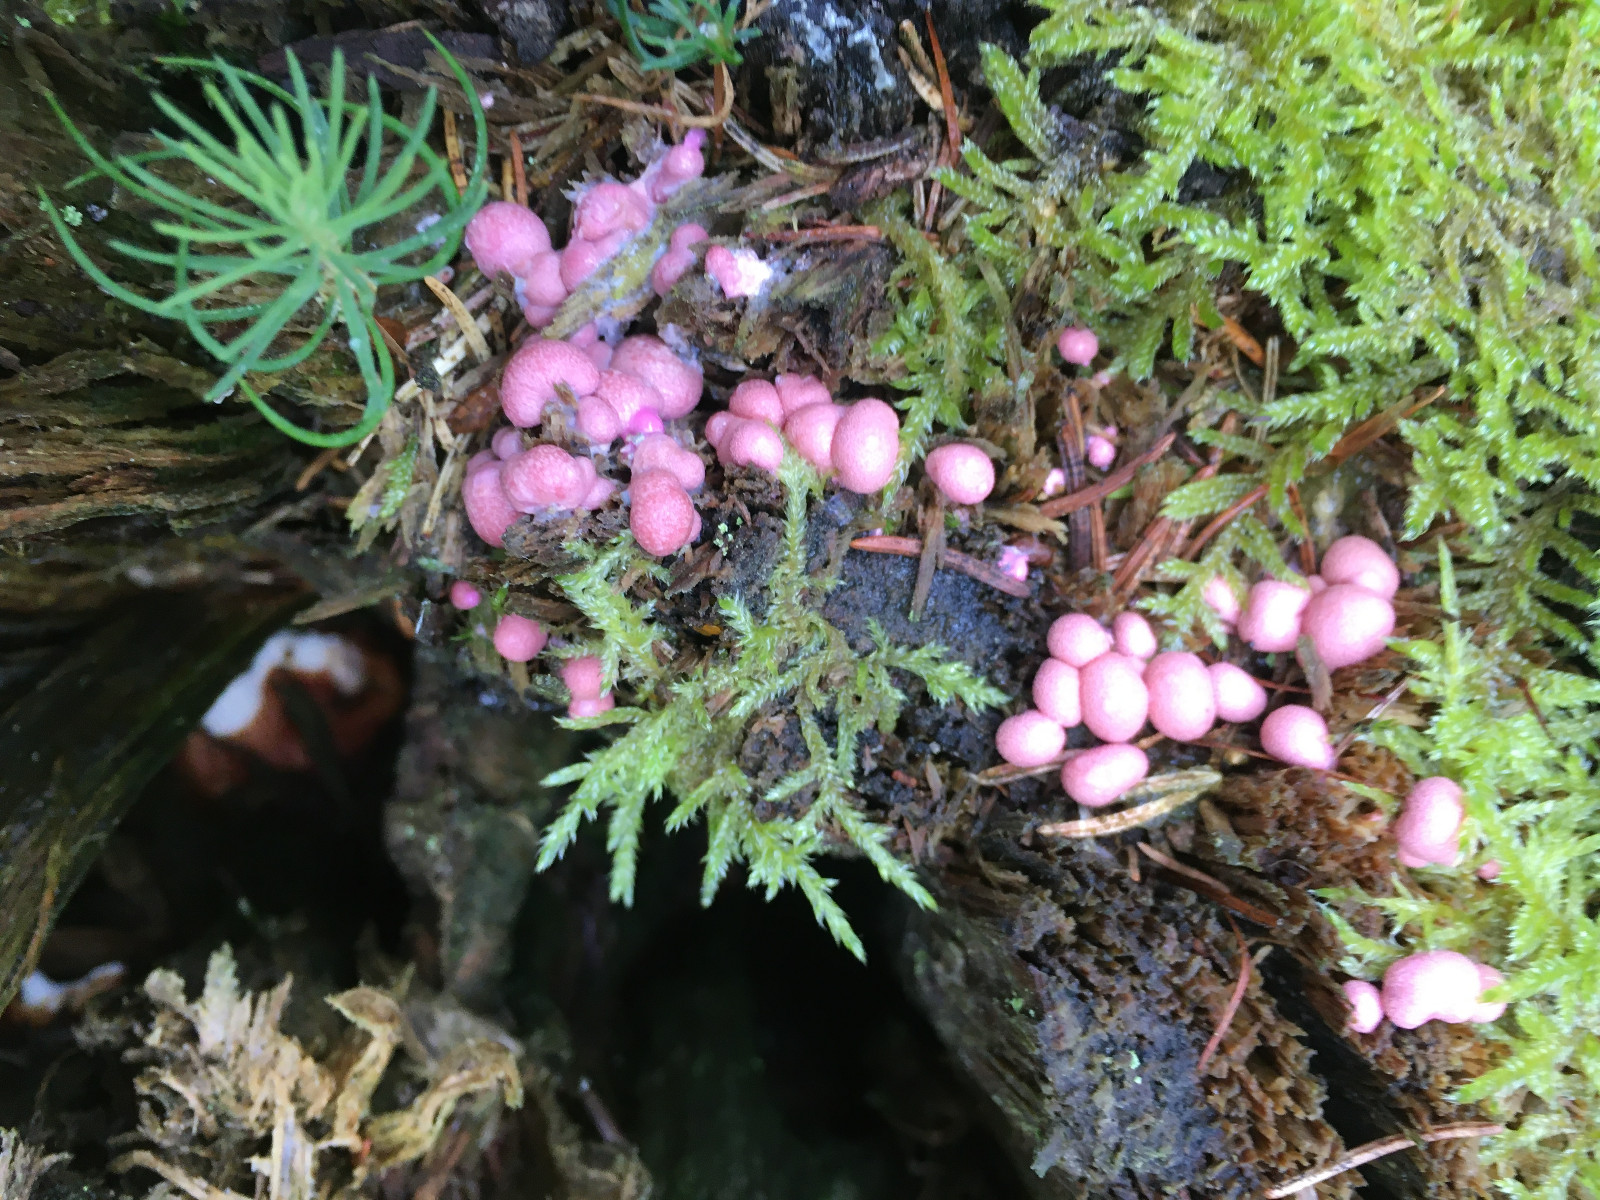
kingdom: Protozoa
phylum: Mycetozoa
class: Myxomycetes
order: Cribrariales
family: Tubiferaceae
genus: Lycogala
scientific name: Lycogala epidendrum
